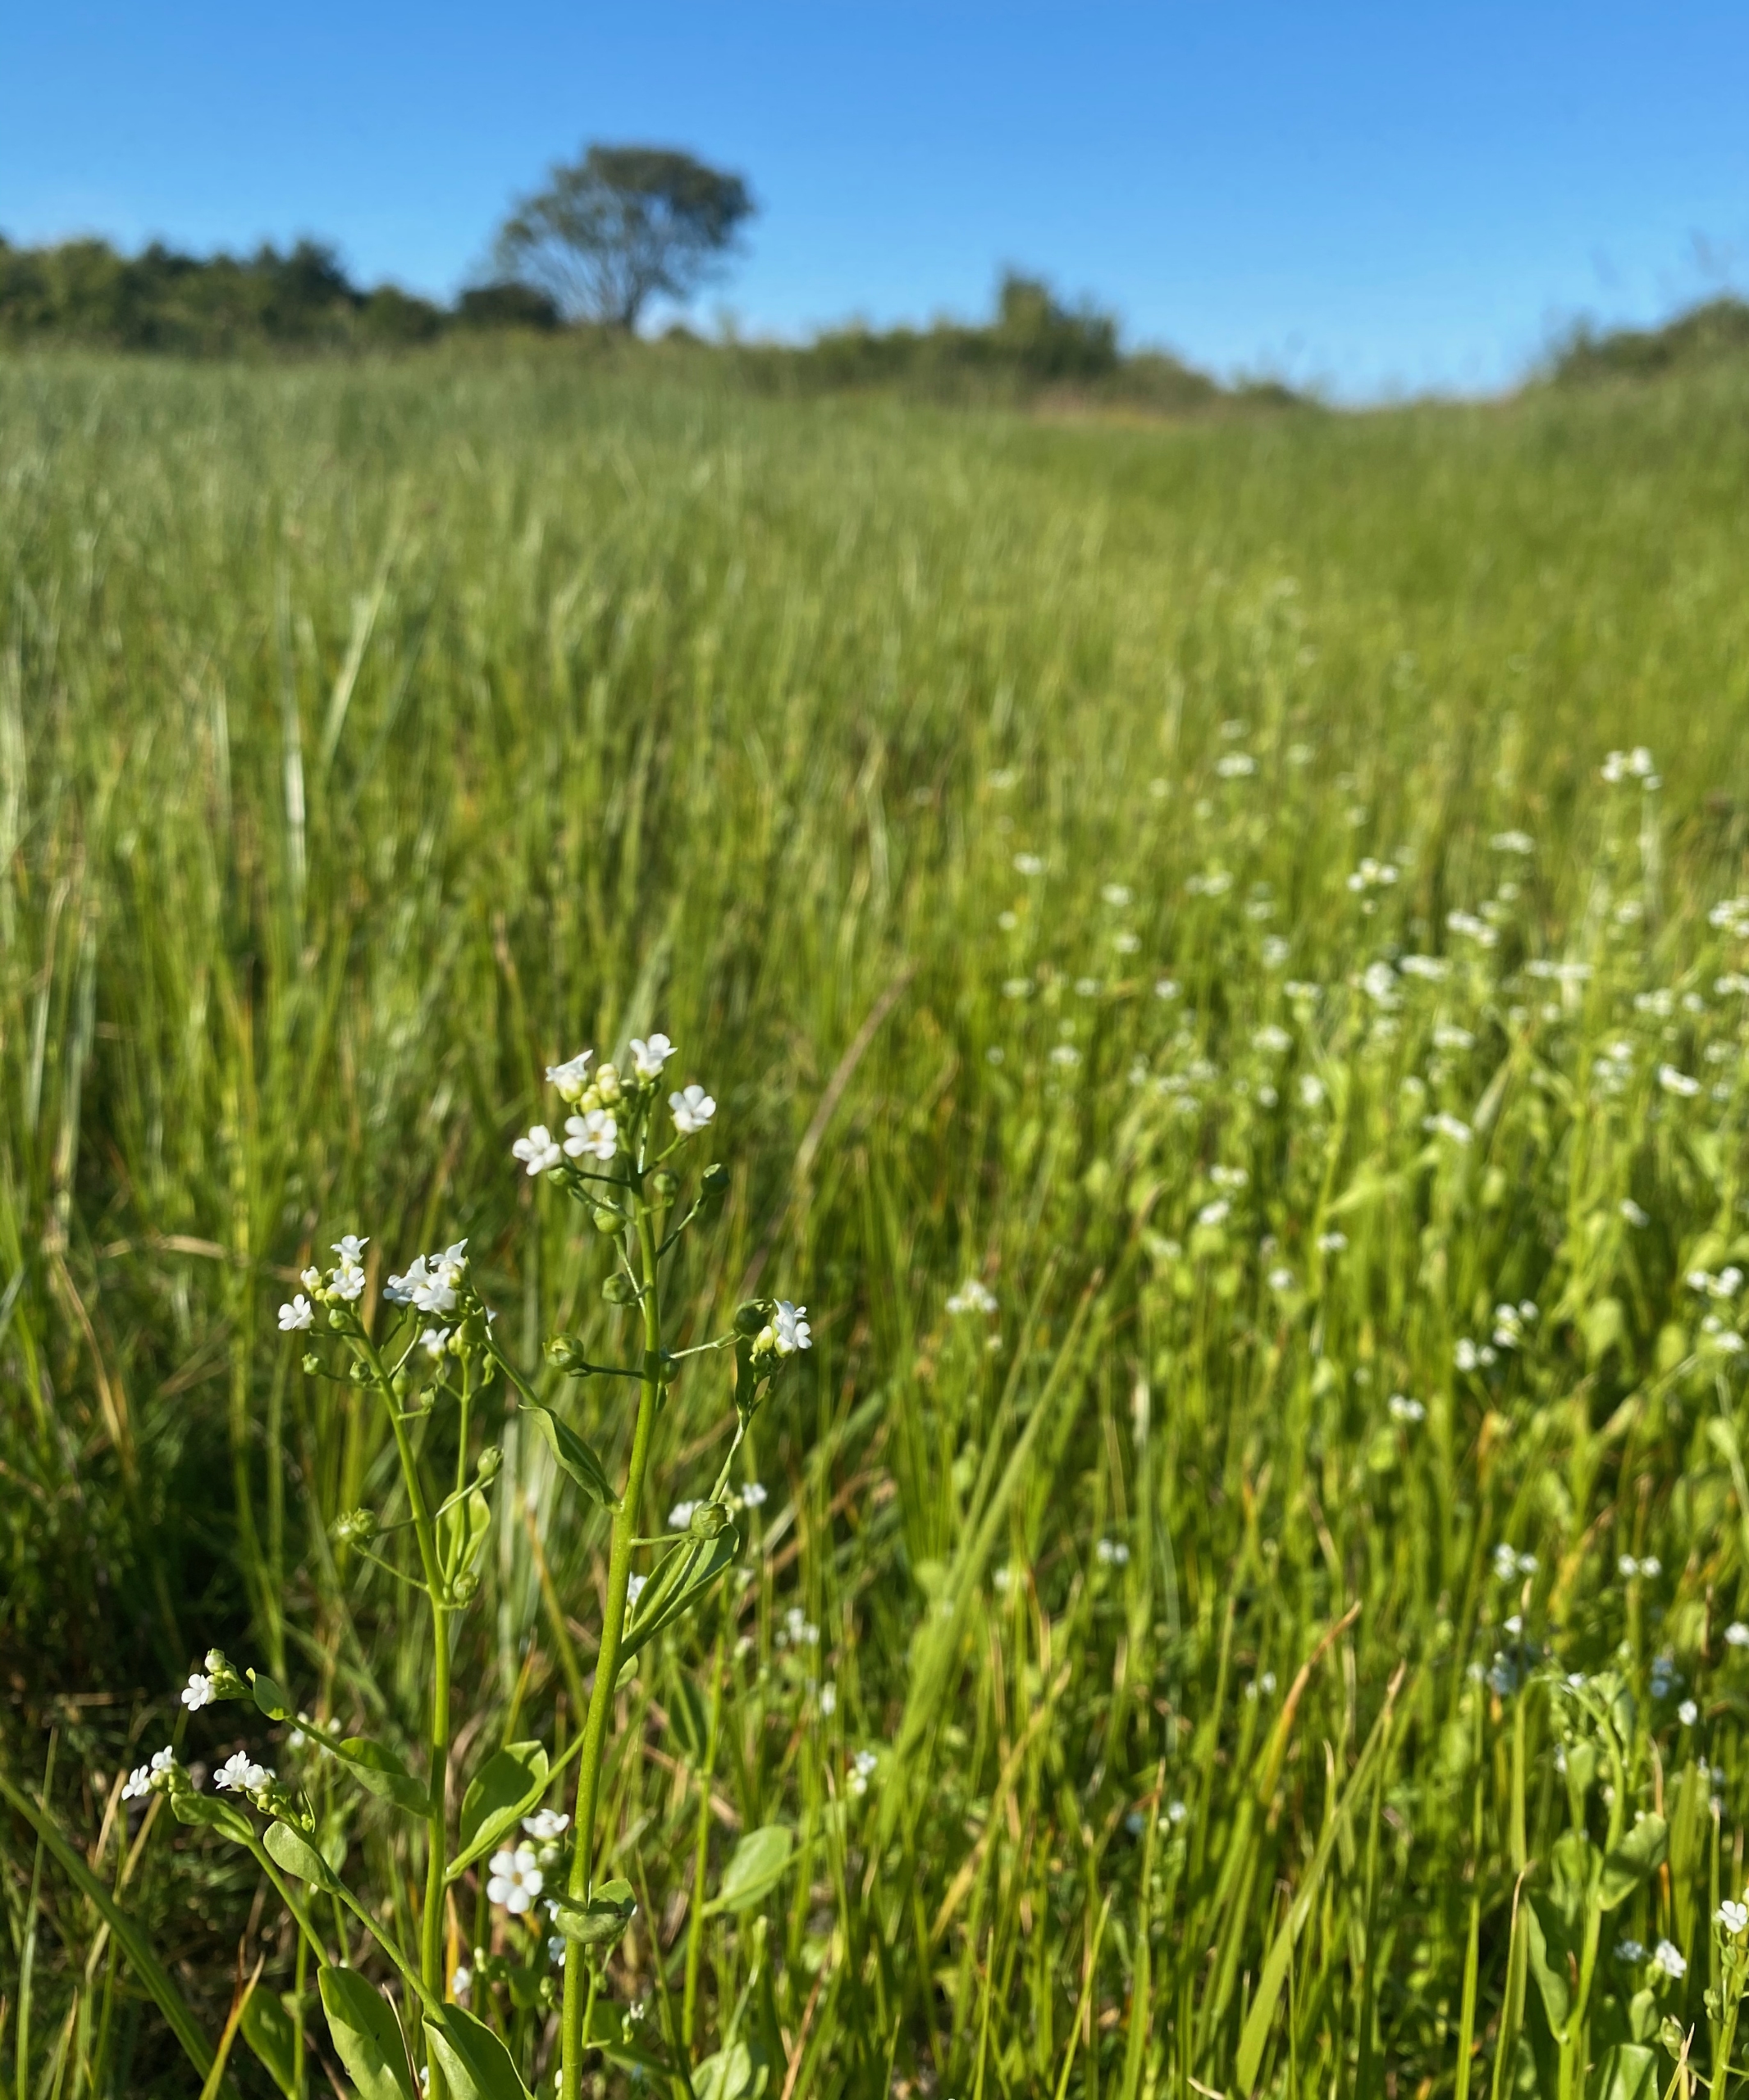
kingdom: Plantae
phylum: Tracheophyta
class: Magnoliopsida
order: Ericales
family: Primulaceae
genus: Samolus
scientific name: Samolus valerandi
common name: Samel
